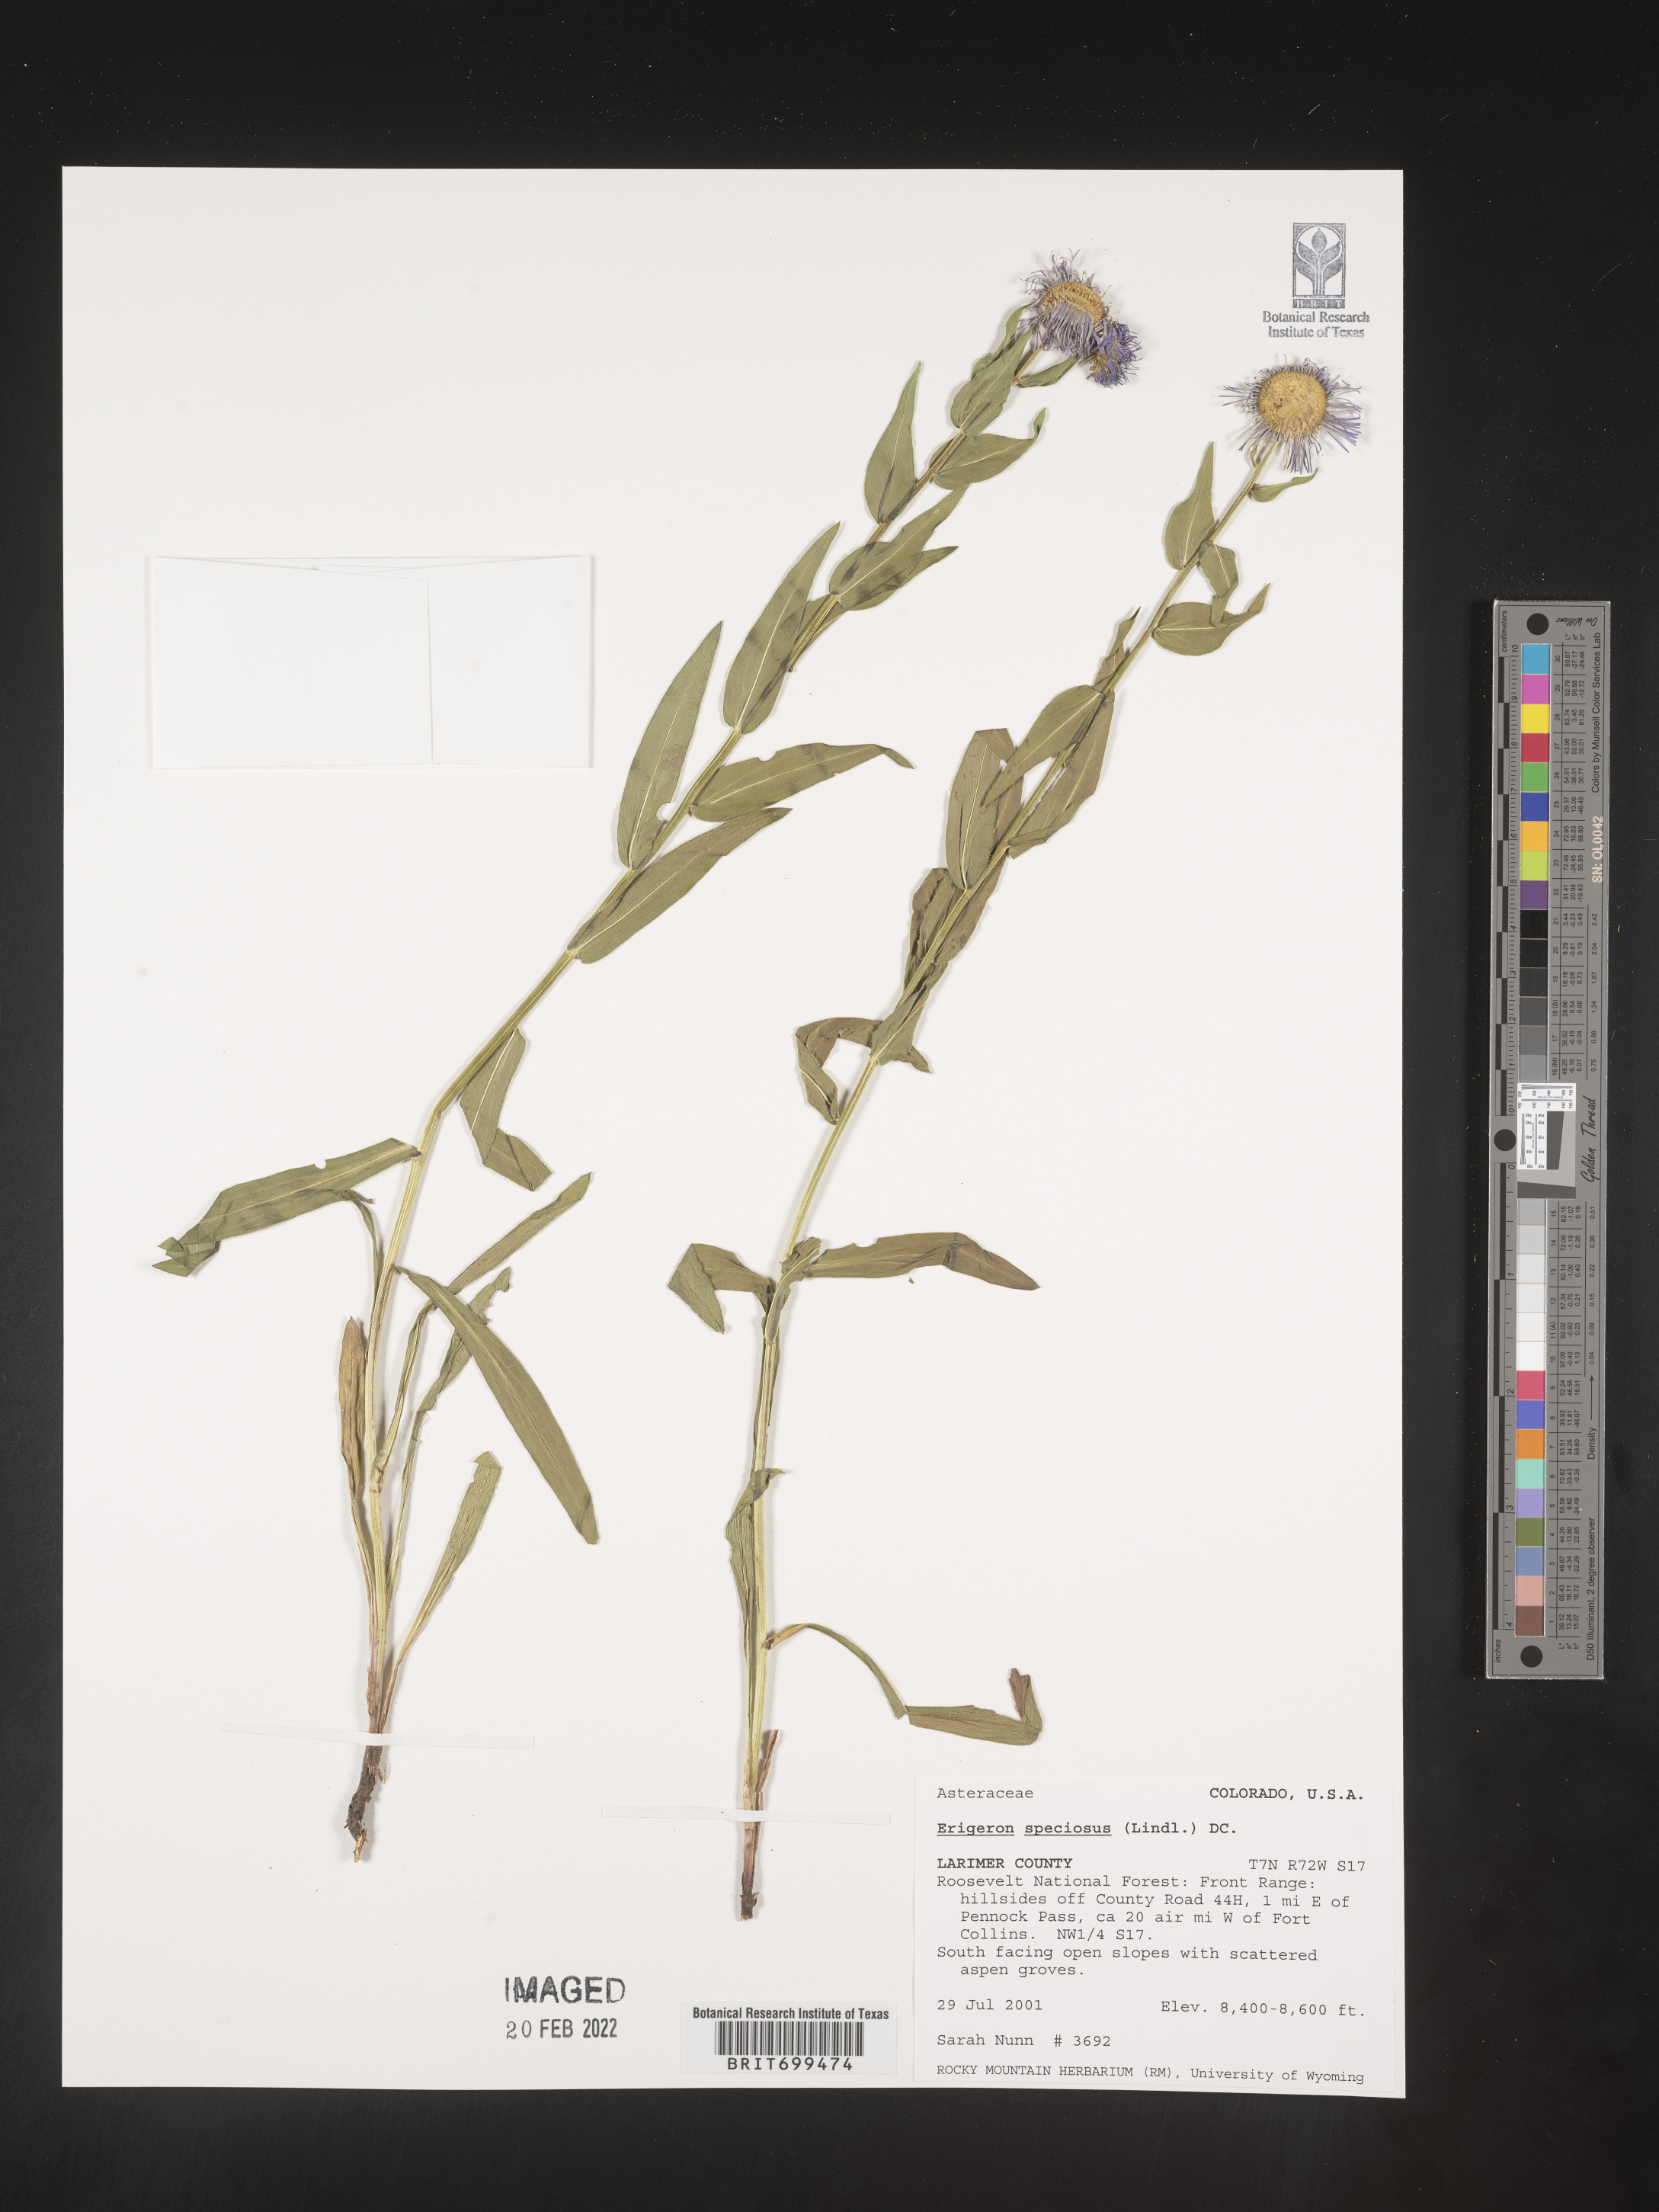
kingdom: Plantae
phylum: Tracheophyta
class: Magnoliopsida
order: Asterales
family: Asteraceae
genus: Erigeron
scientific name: Erigeron speciosus
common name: Aspen fleabane
